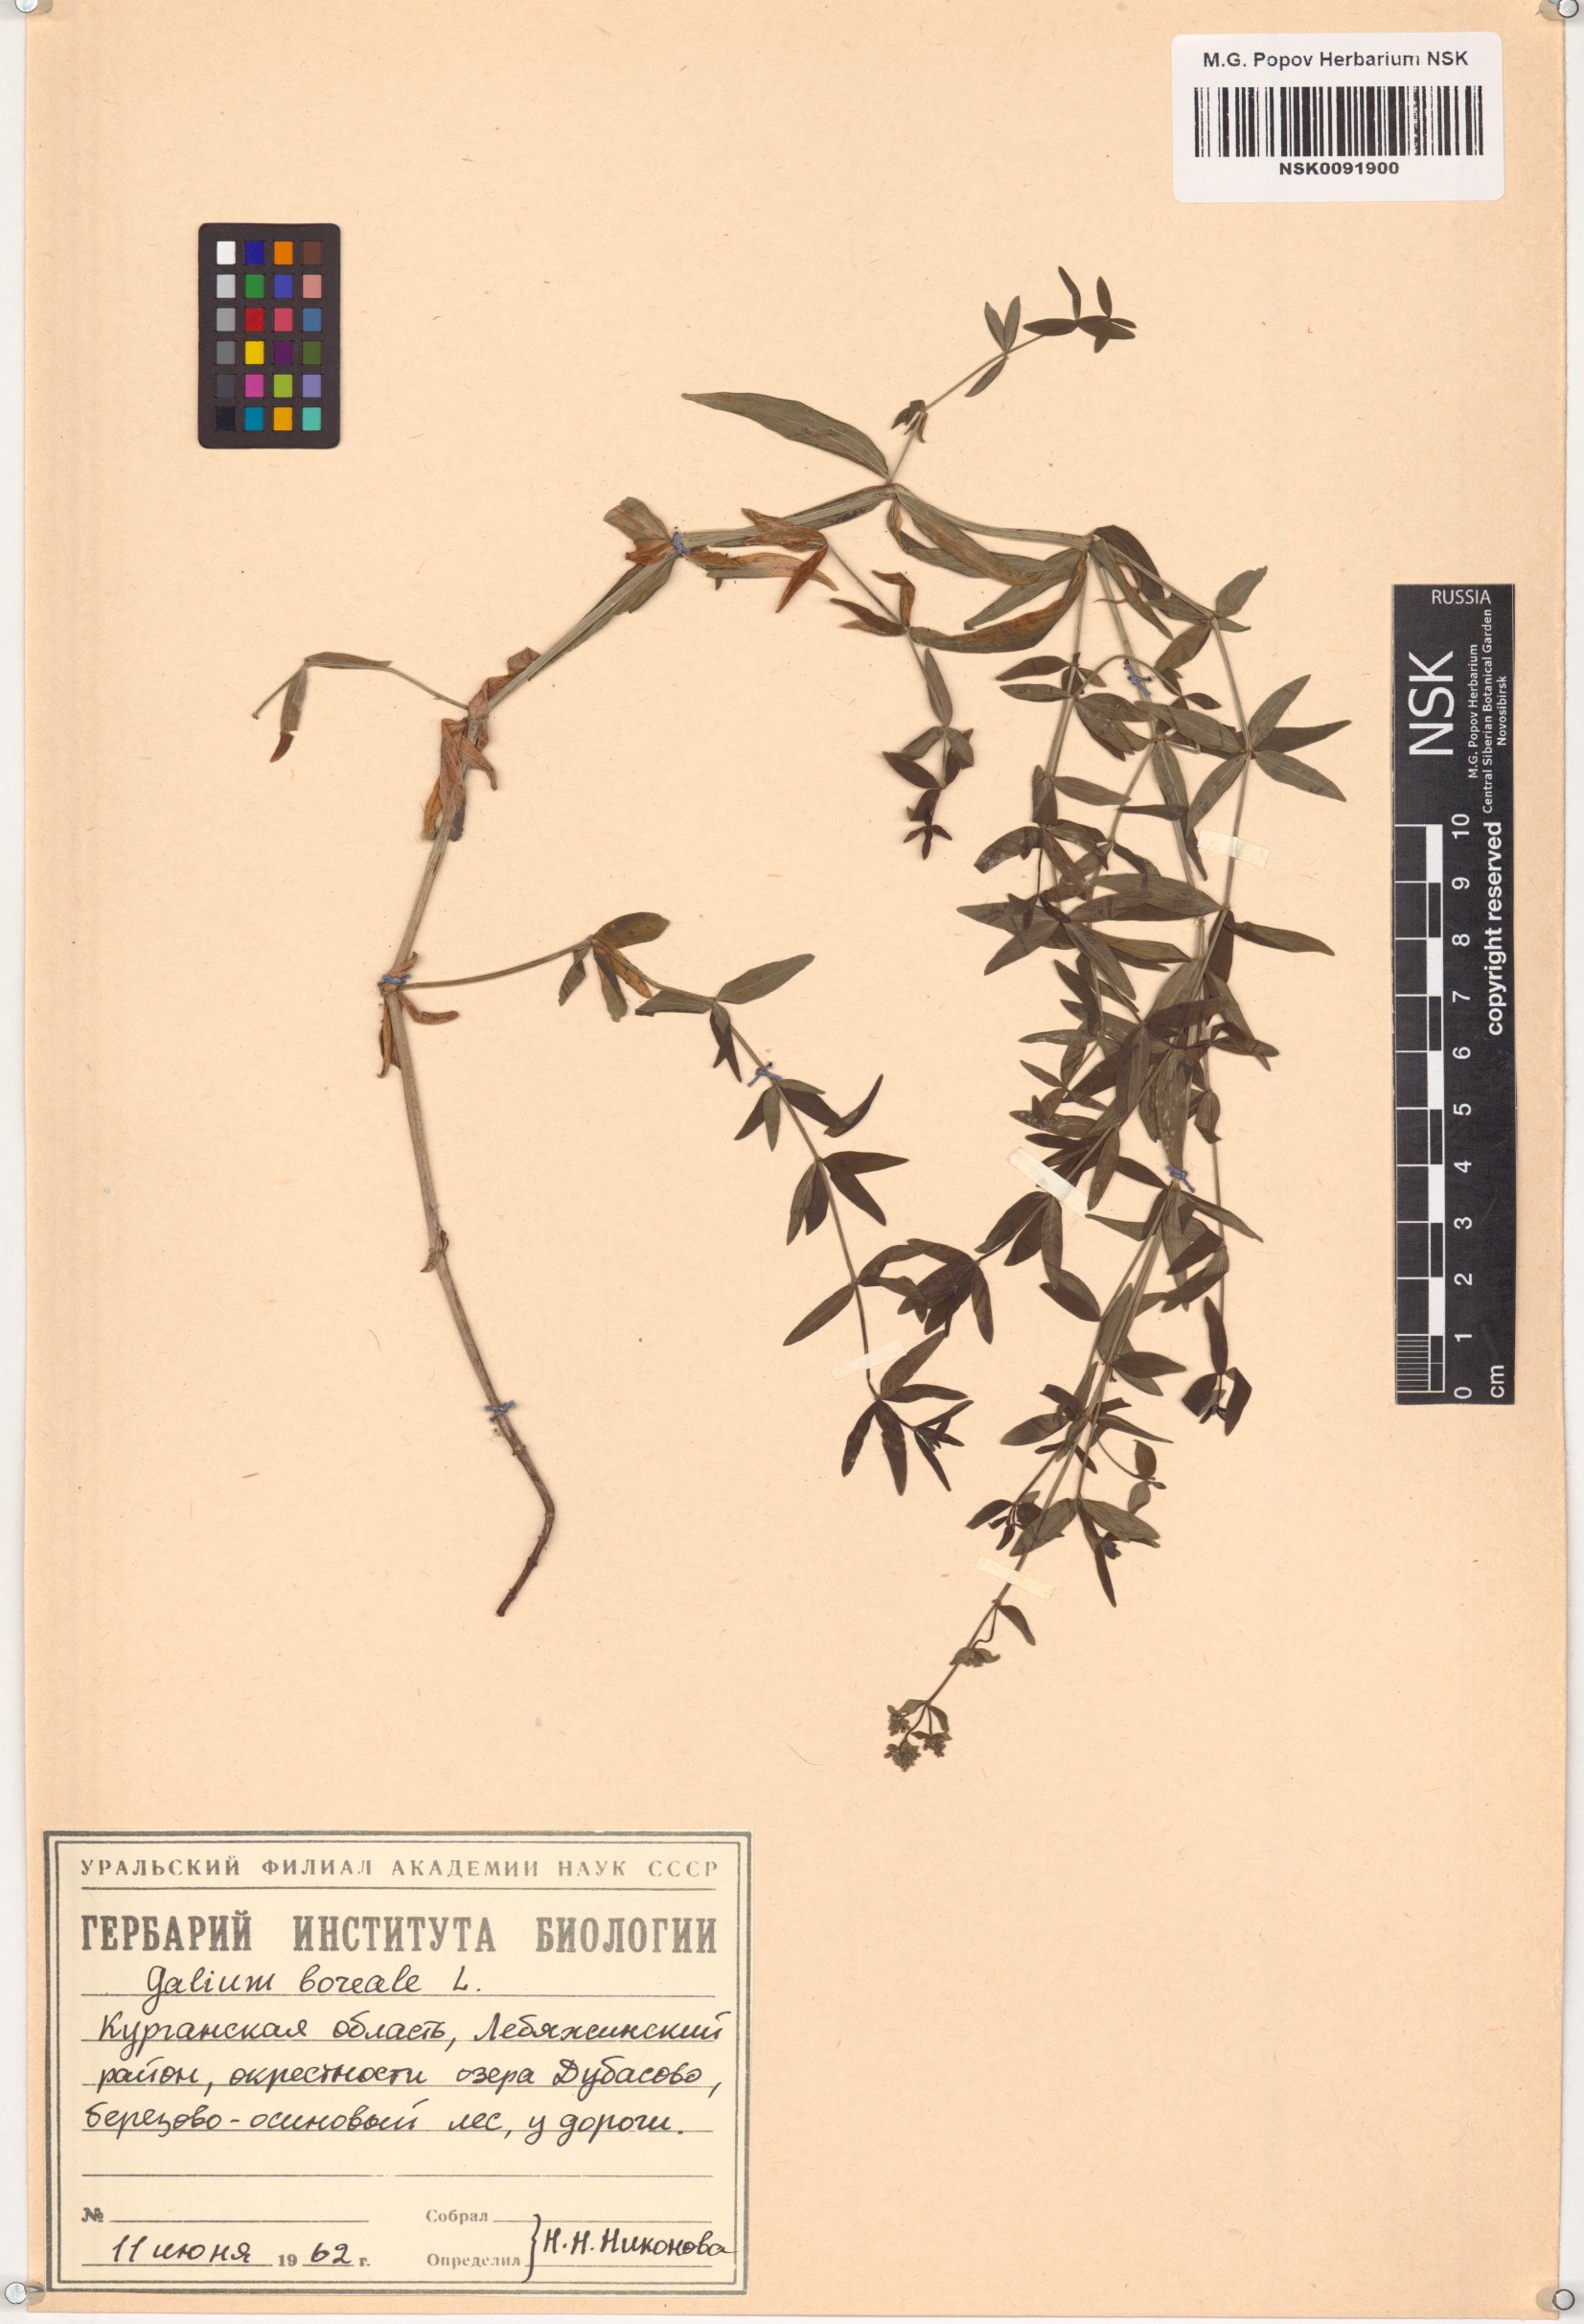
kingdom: Plantae
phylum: Tracheophyta
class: Magnoliopsida
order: Gentianales
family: Rubiaceae
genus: Galium
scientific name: Galium boreale
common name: Northern bedstraw
